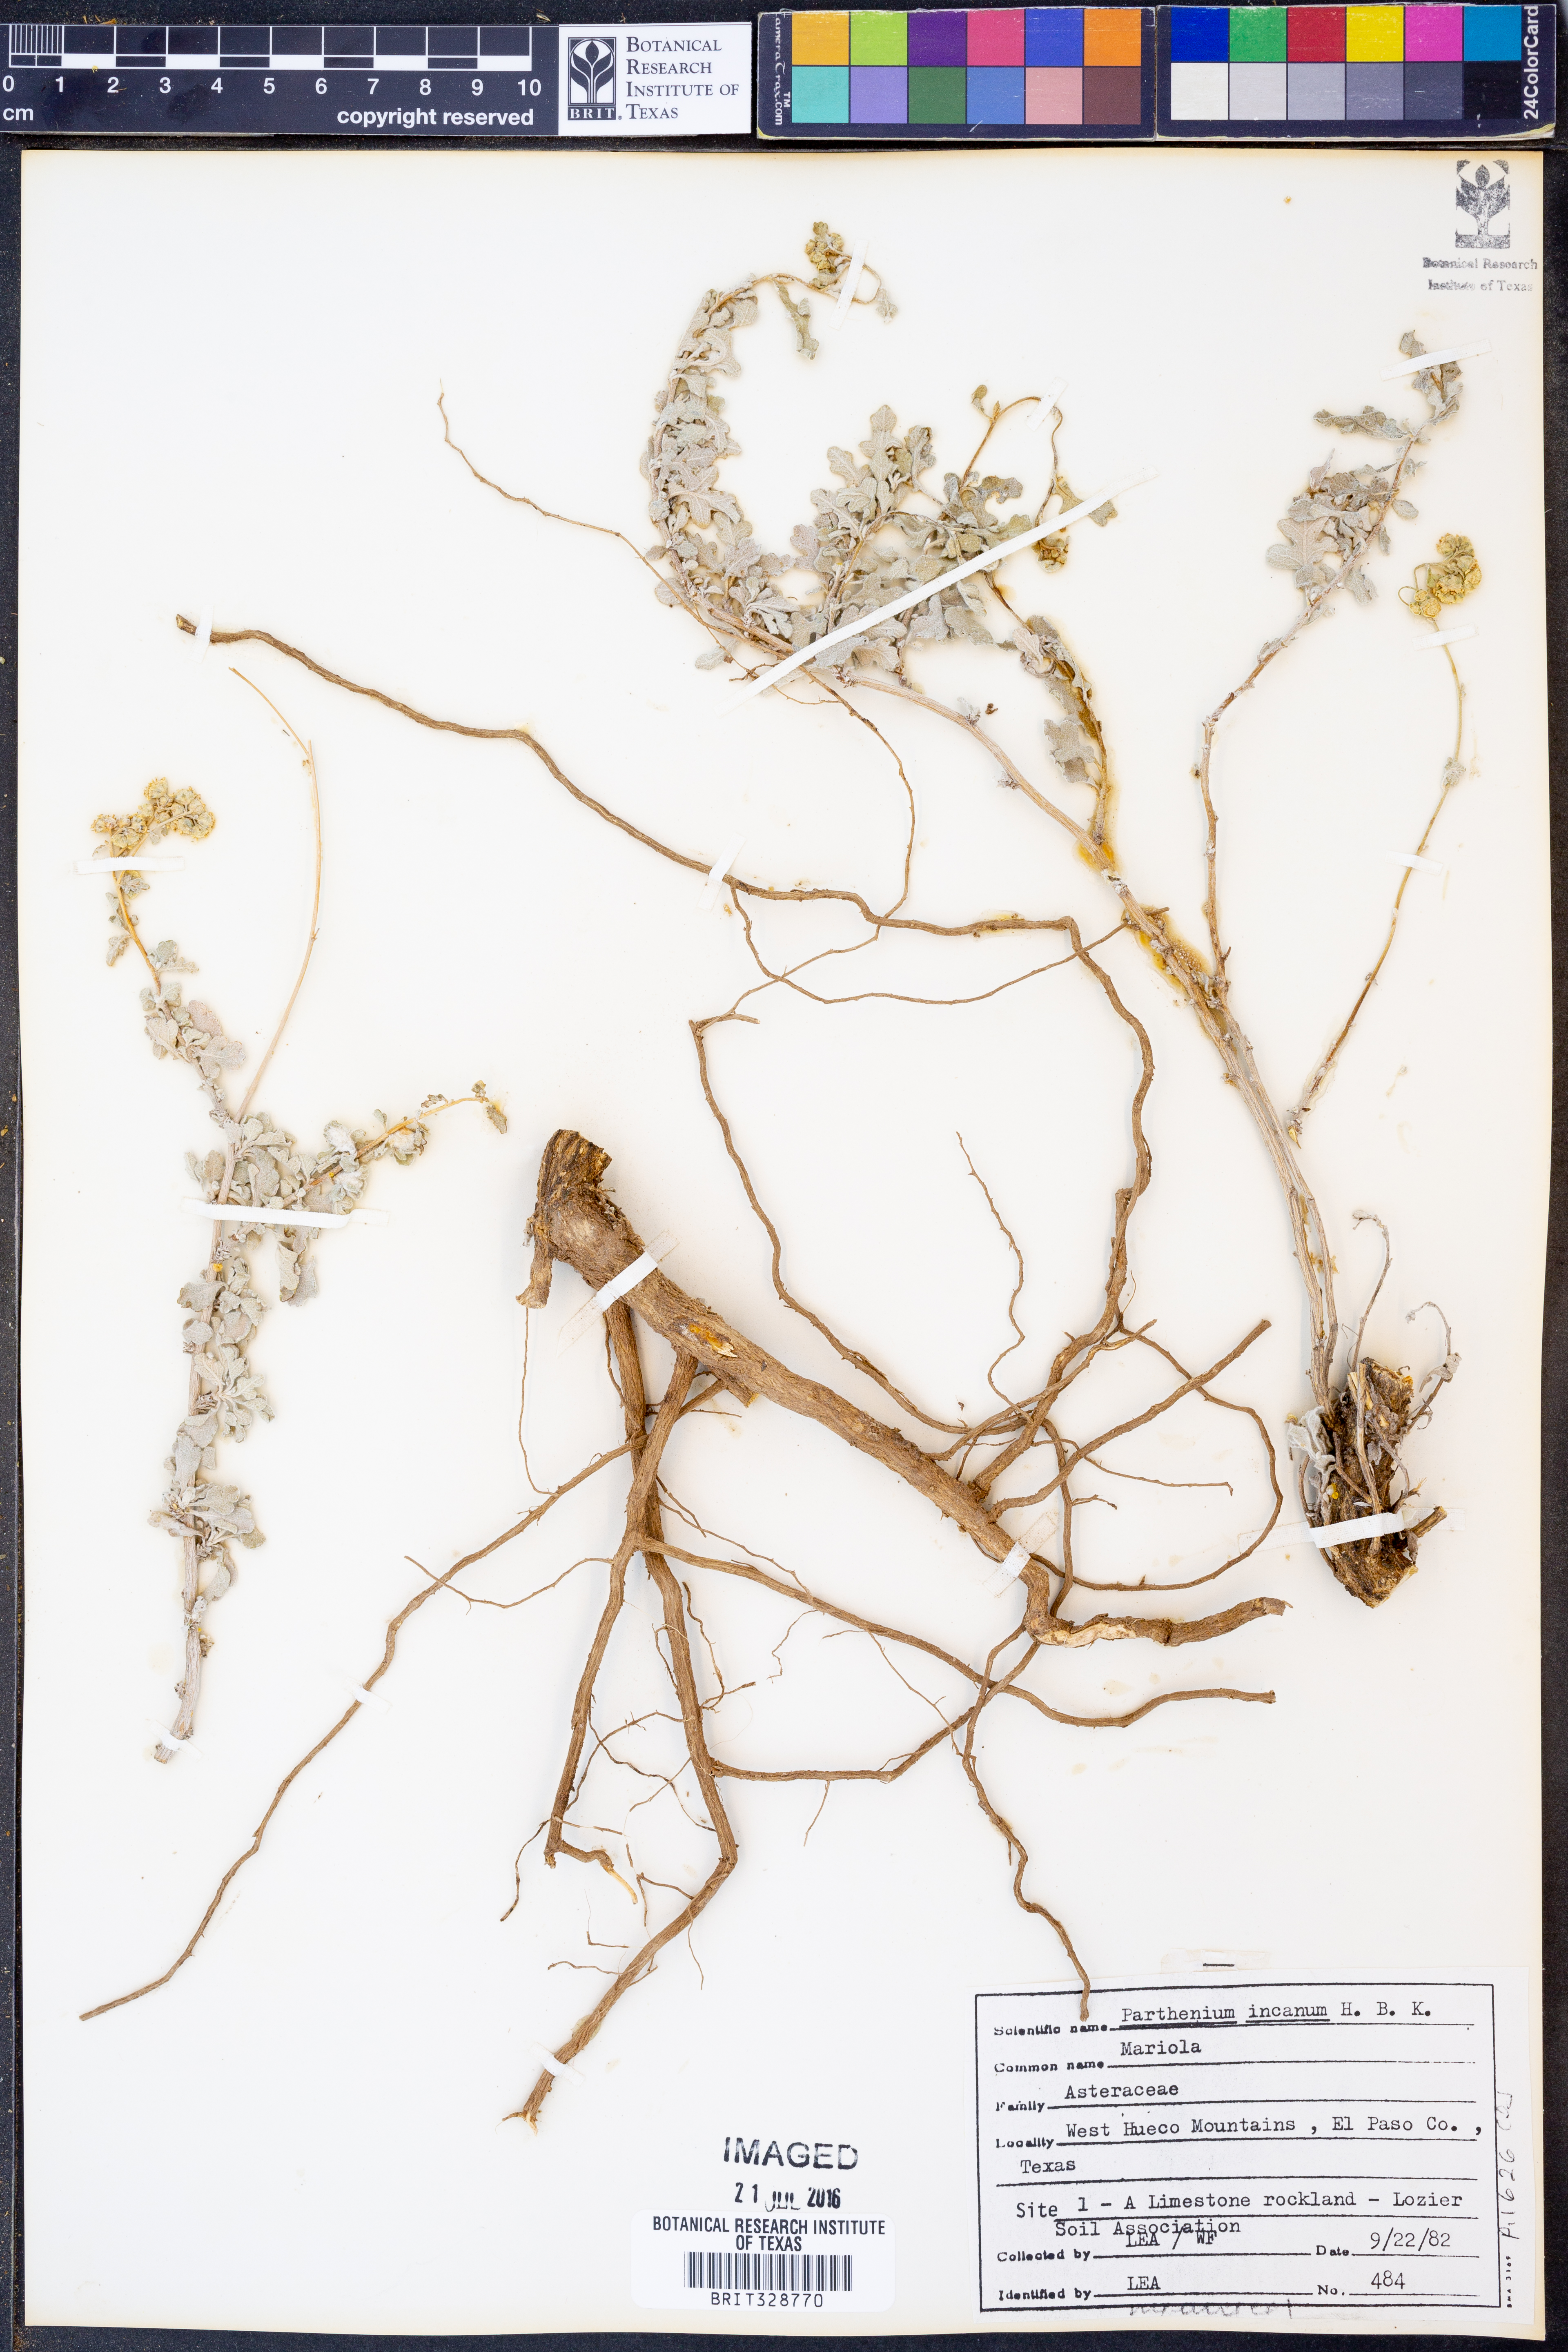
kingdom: Plantae
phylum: Tracheophyta
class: Magnoliopsida
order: Asterales
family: Asteraceae
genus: Parthenium
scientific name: Parthenium incanum
